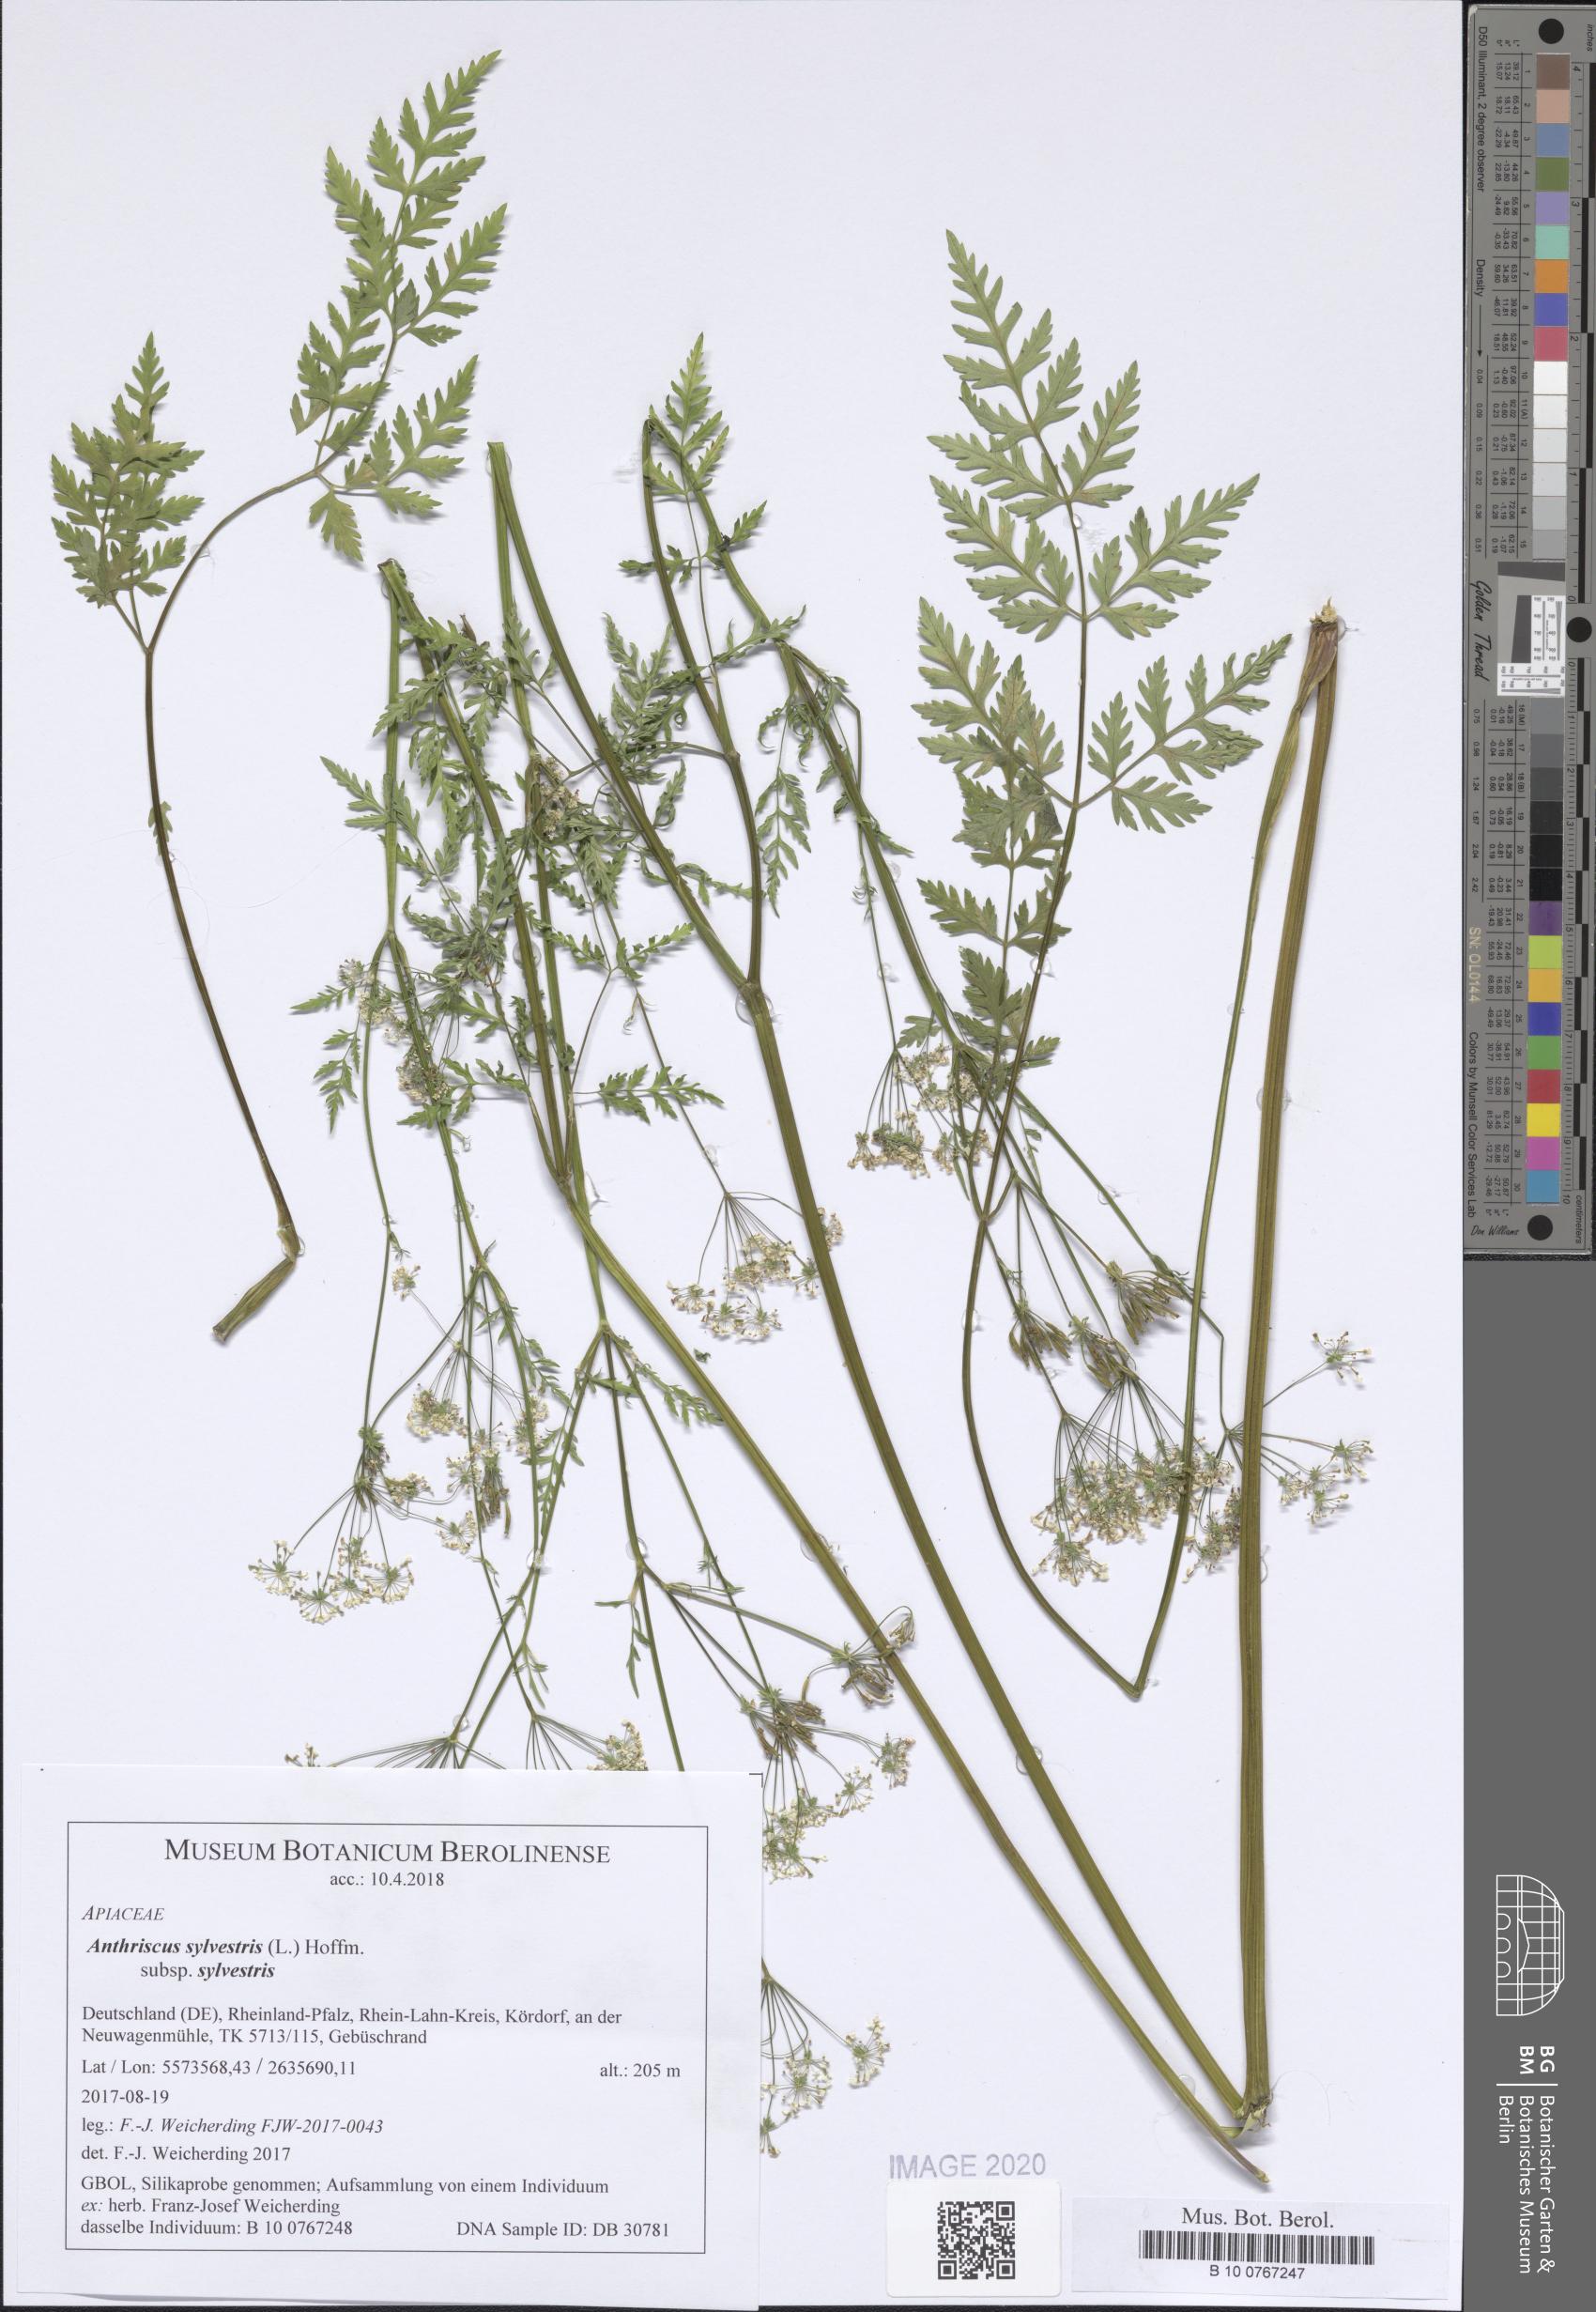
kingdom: Plantae
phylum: Tracheophyta
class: Magnoliopsida
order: Apiales
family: Apiaceae
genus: Anthriscus
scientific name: Anthriscus sylvestris
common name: Cow parsley
